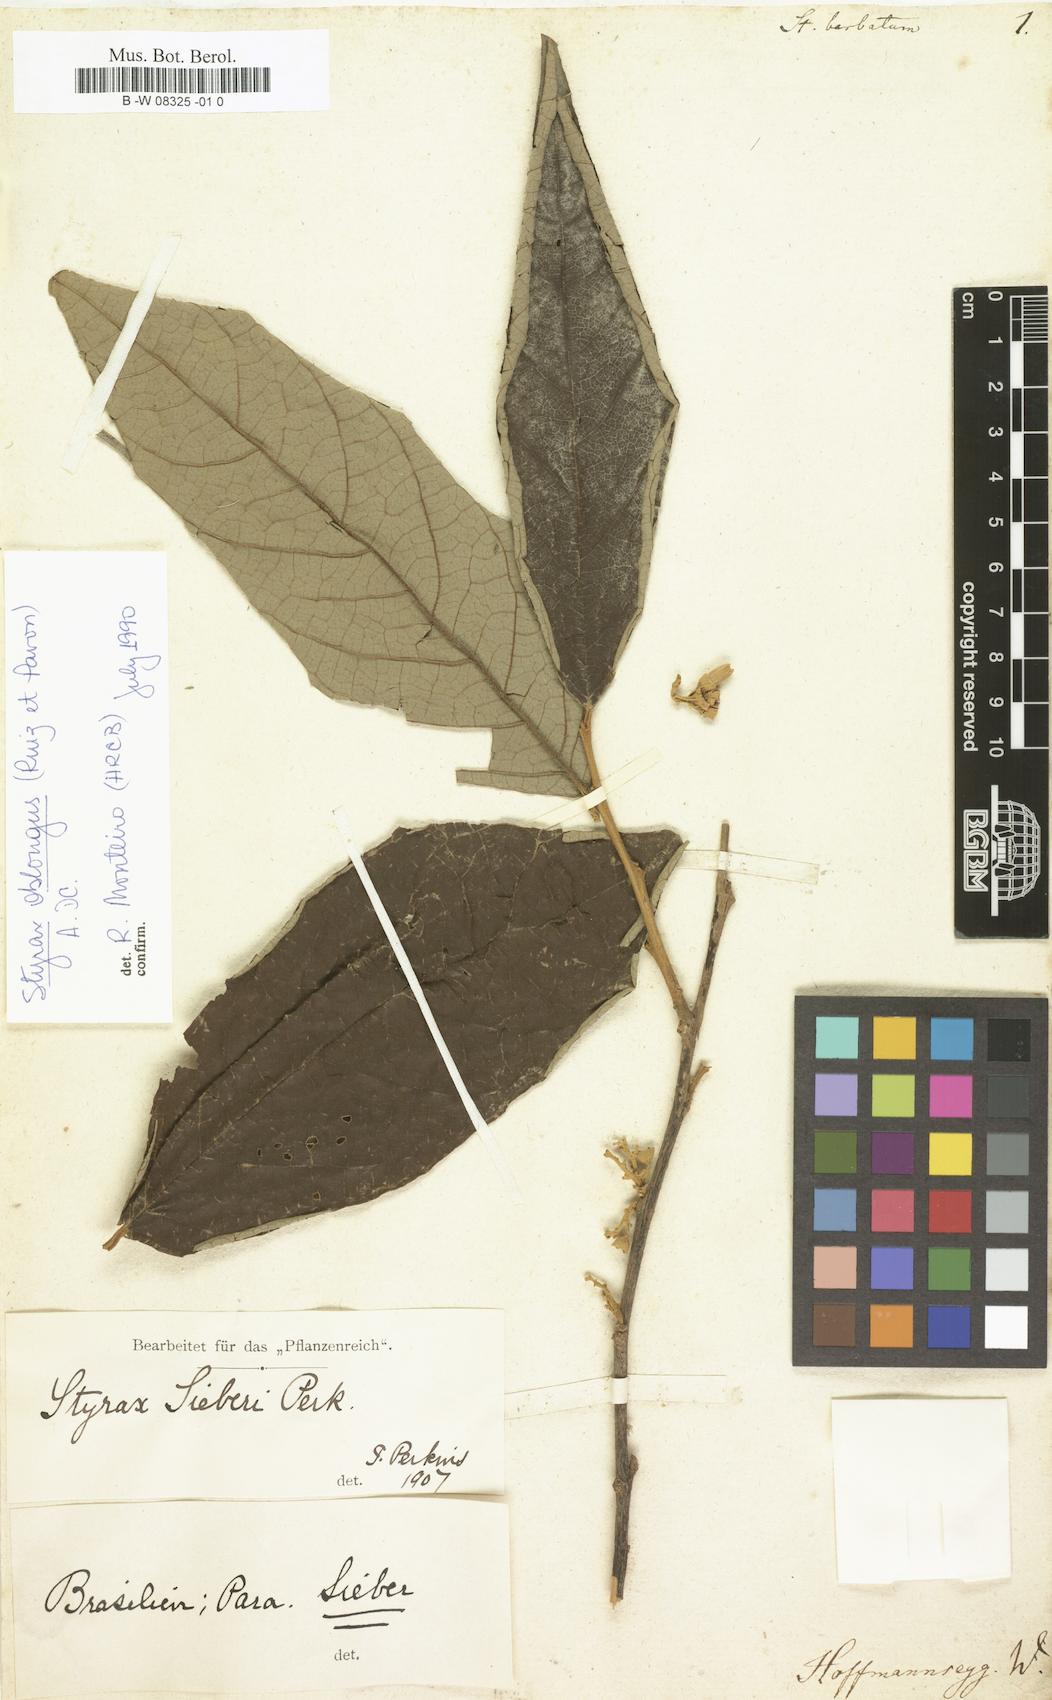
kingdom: Plantae
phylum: Tracheophyta
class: Magnoliopsida
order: Ericales
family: Styracaceae
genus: Styrax
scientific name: Styrax sieberi
